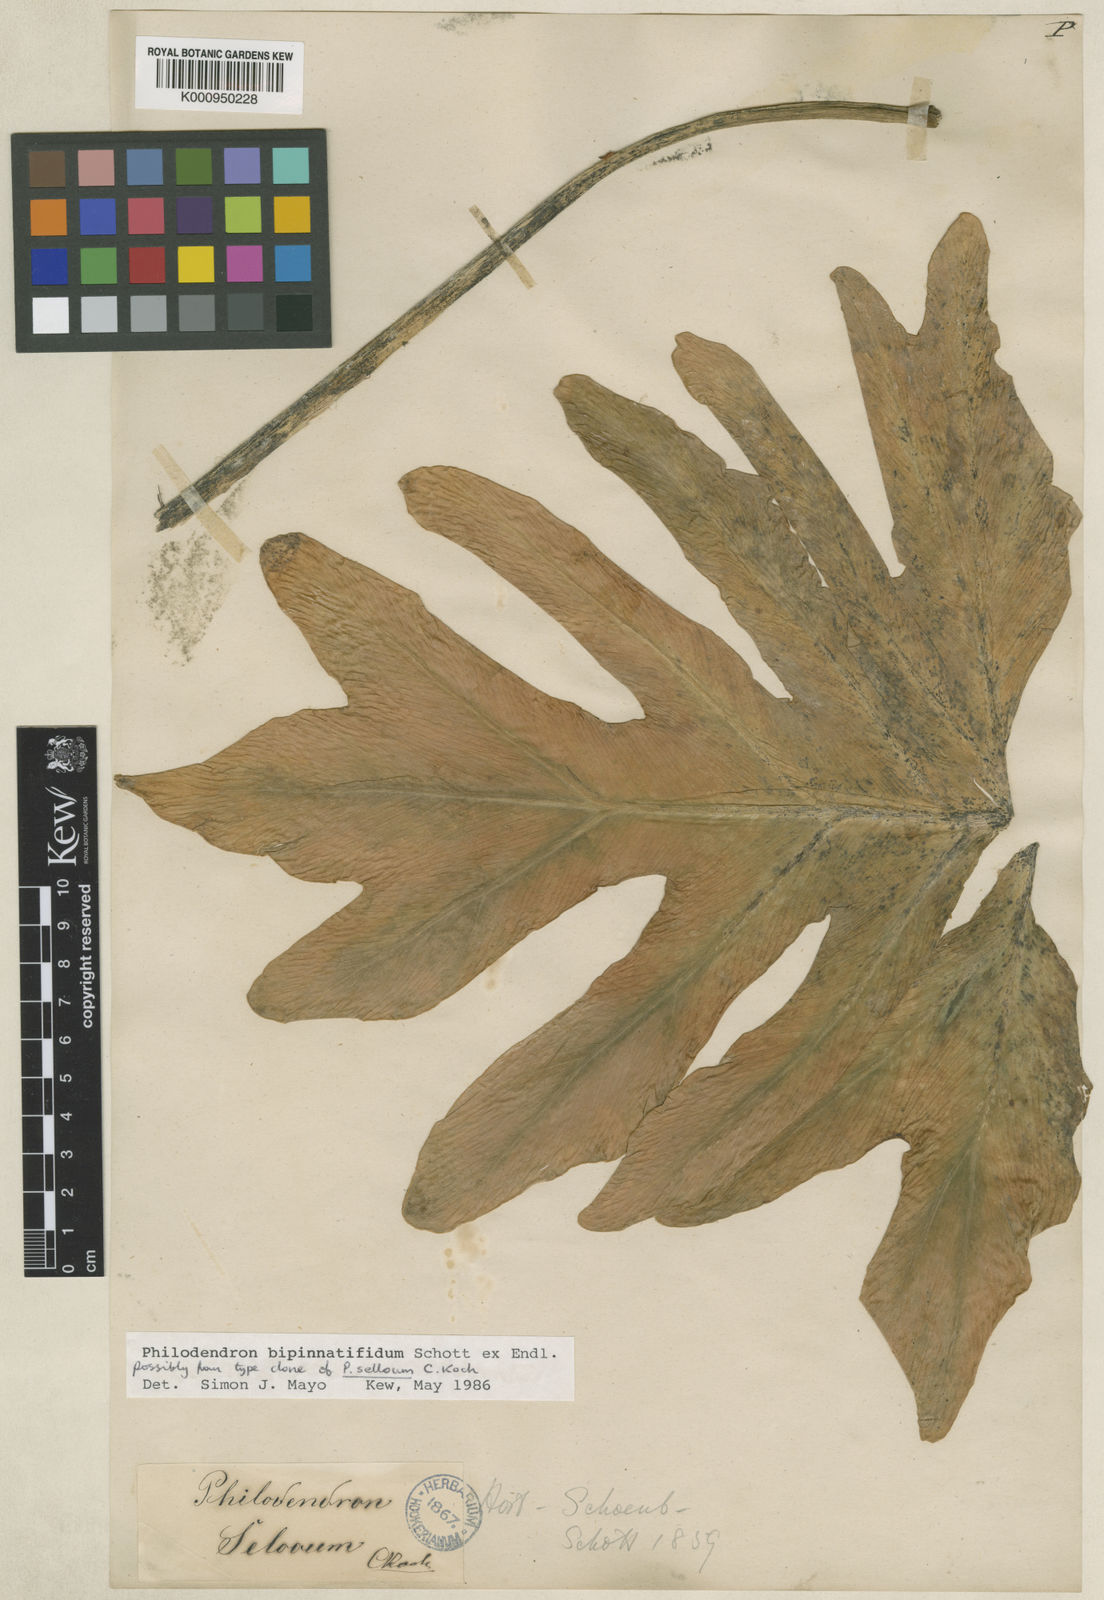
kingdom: Plantae
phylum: Tracheophyta
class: Liliopsida
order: Alismatales
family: Araceae
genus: Thaumatophyllum
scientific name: Thaumatophyllum bipinnatifidum
